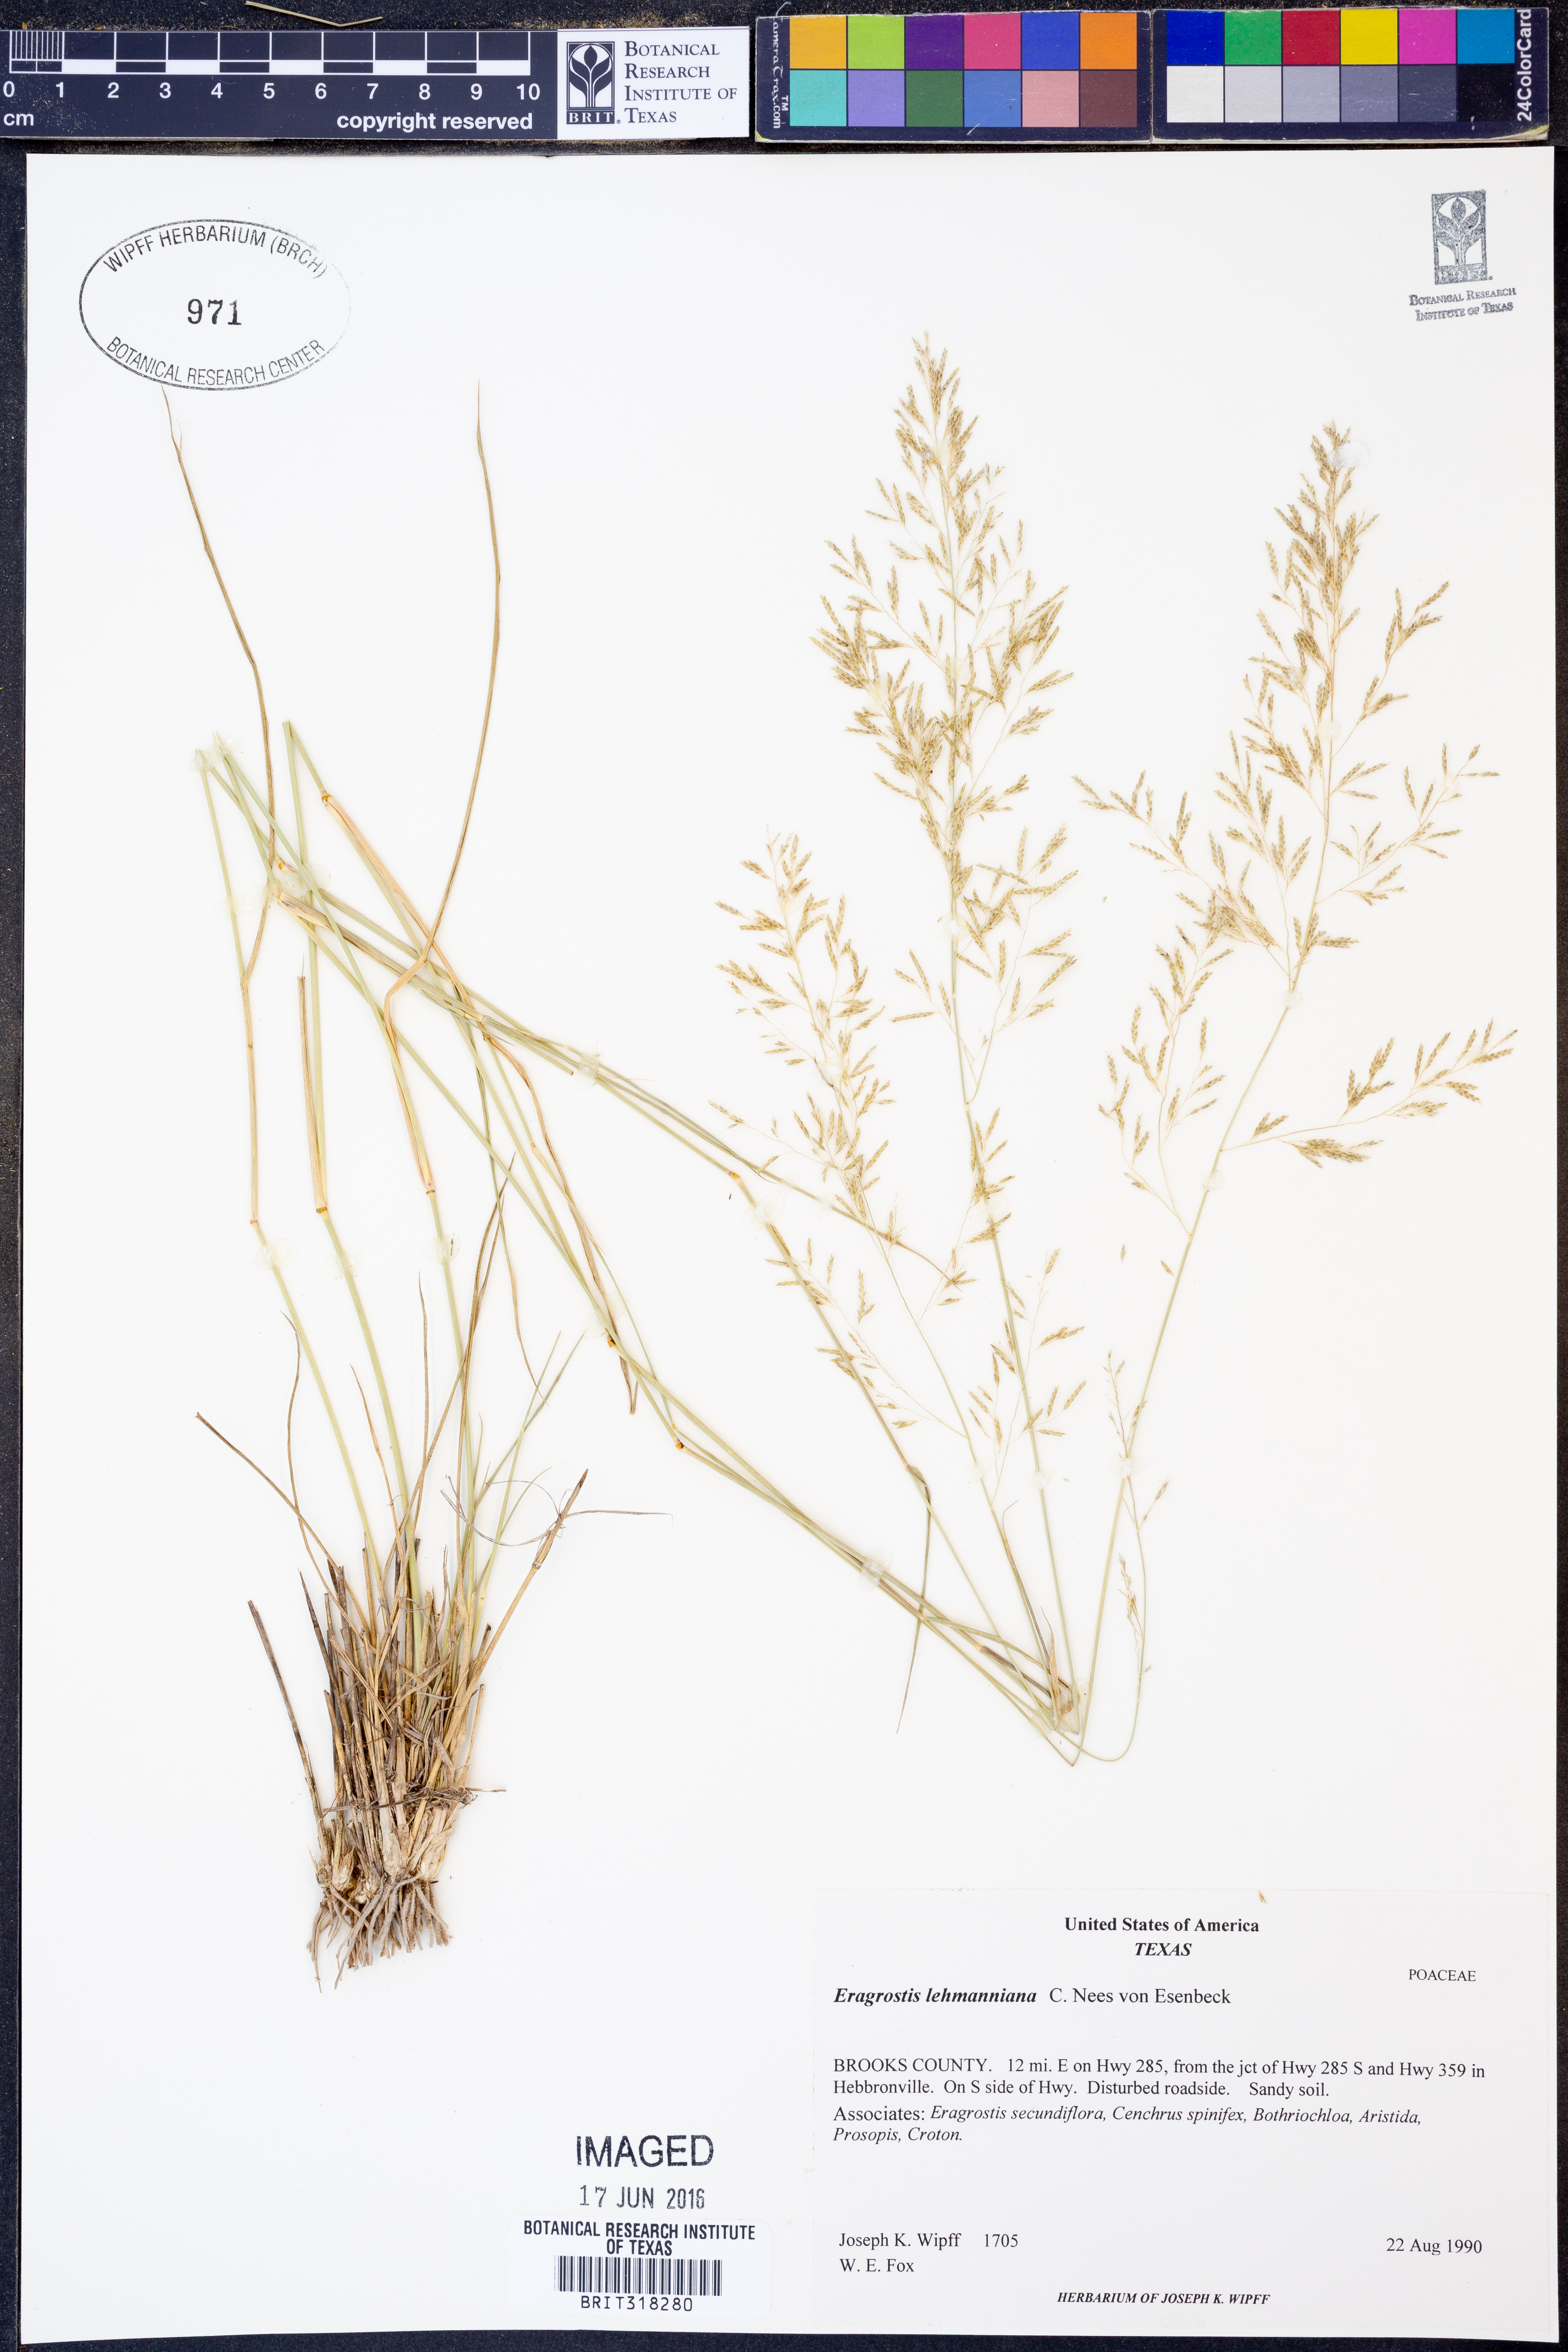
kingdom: Plantae
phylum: Tracheophyta
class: Liliopsida
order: Poales
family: Poaceae
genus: Eragrostis
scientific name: Eragrostis lehmanniana
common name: Lehmann lovegrass
